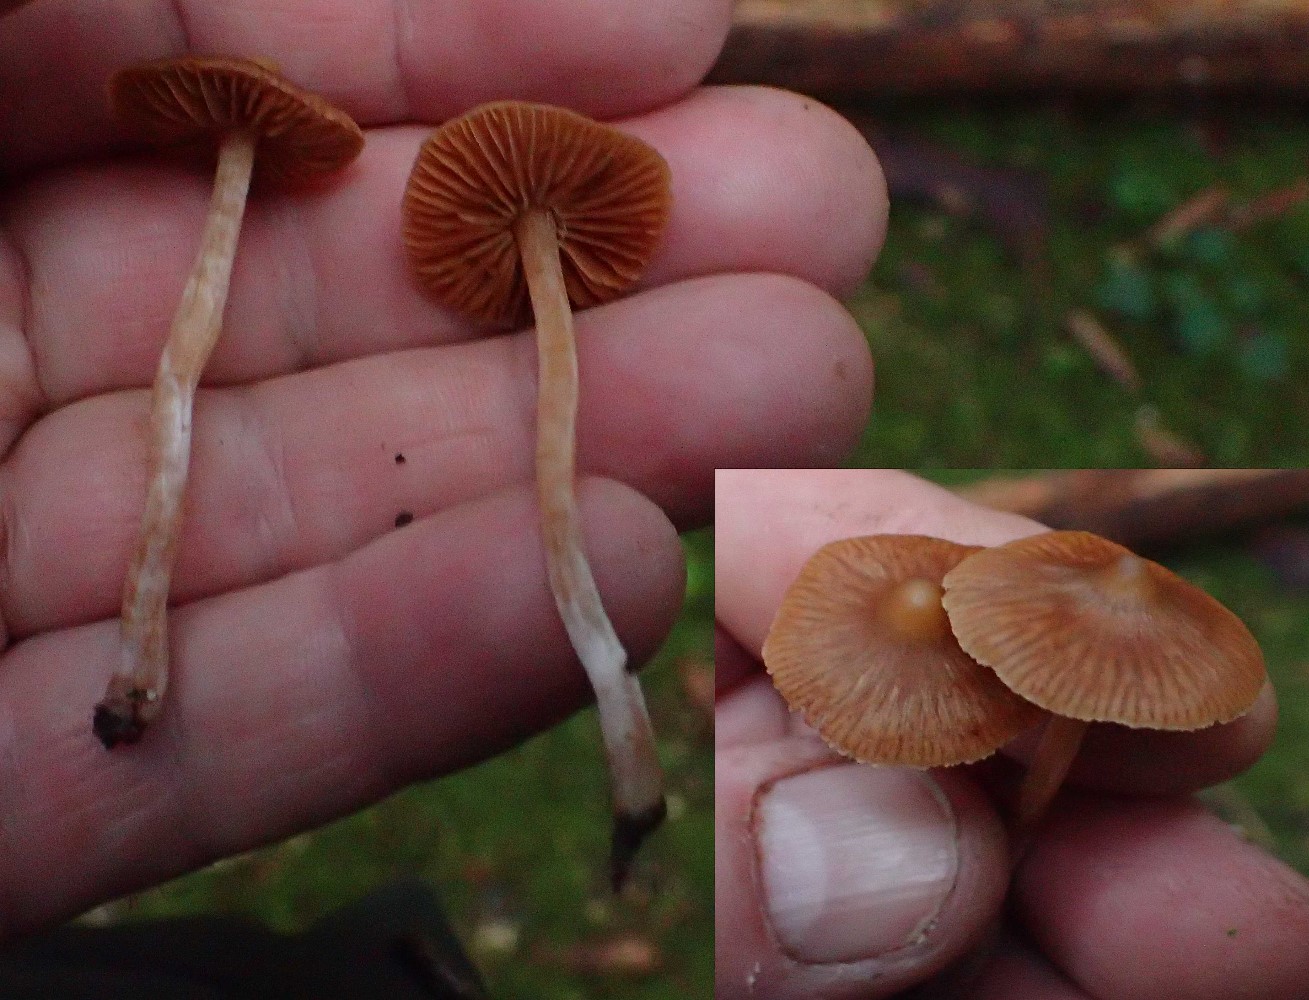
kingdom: Fungi
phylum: Basidiomycota
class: Agaricomycetes
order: Agaricales
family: Cortinariaceae
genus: Cortinarius
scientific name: Cortinarius acutus
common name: spids slørhat
